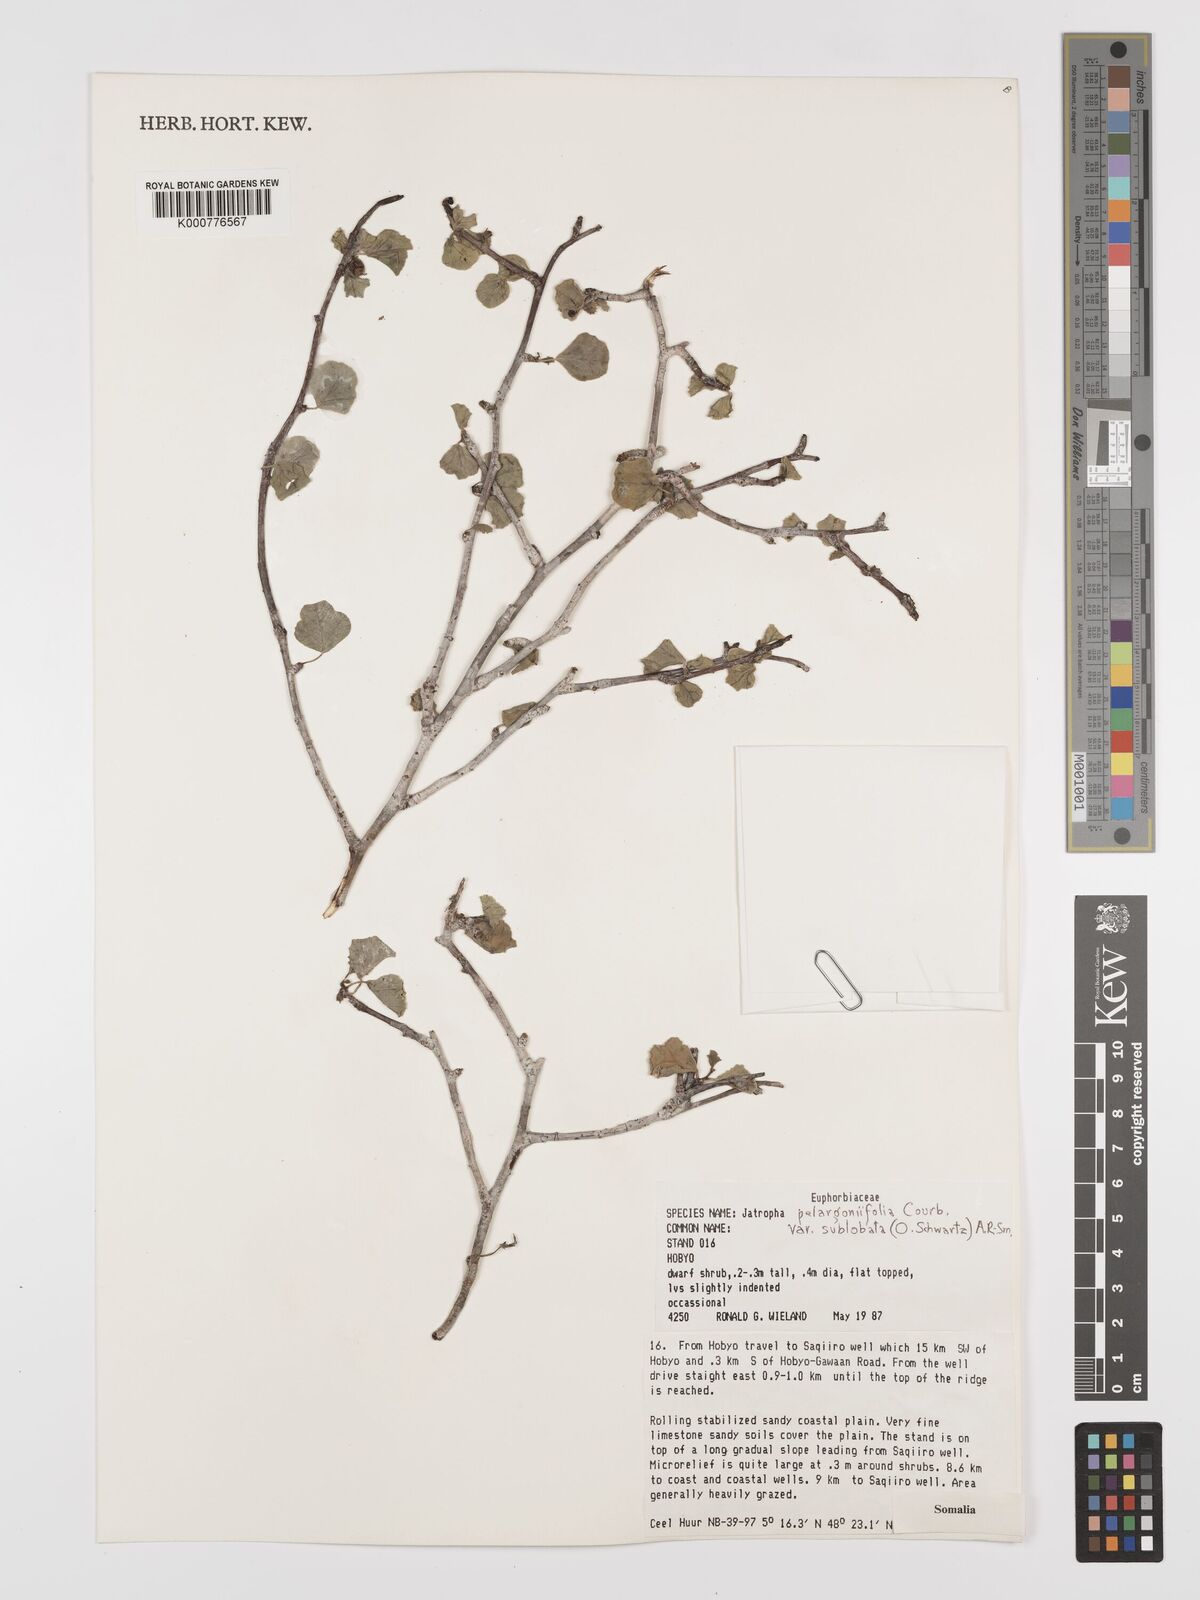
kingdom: Plantae
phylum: Tracheophyta
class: Magnoliopsida
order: Malpighiales
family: Euphorbiaceae
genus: Jatropha
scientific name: Jatropha pelargoniifolia
